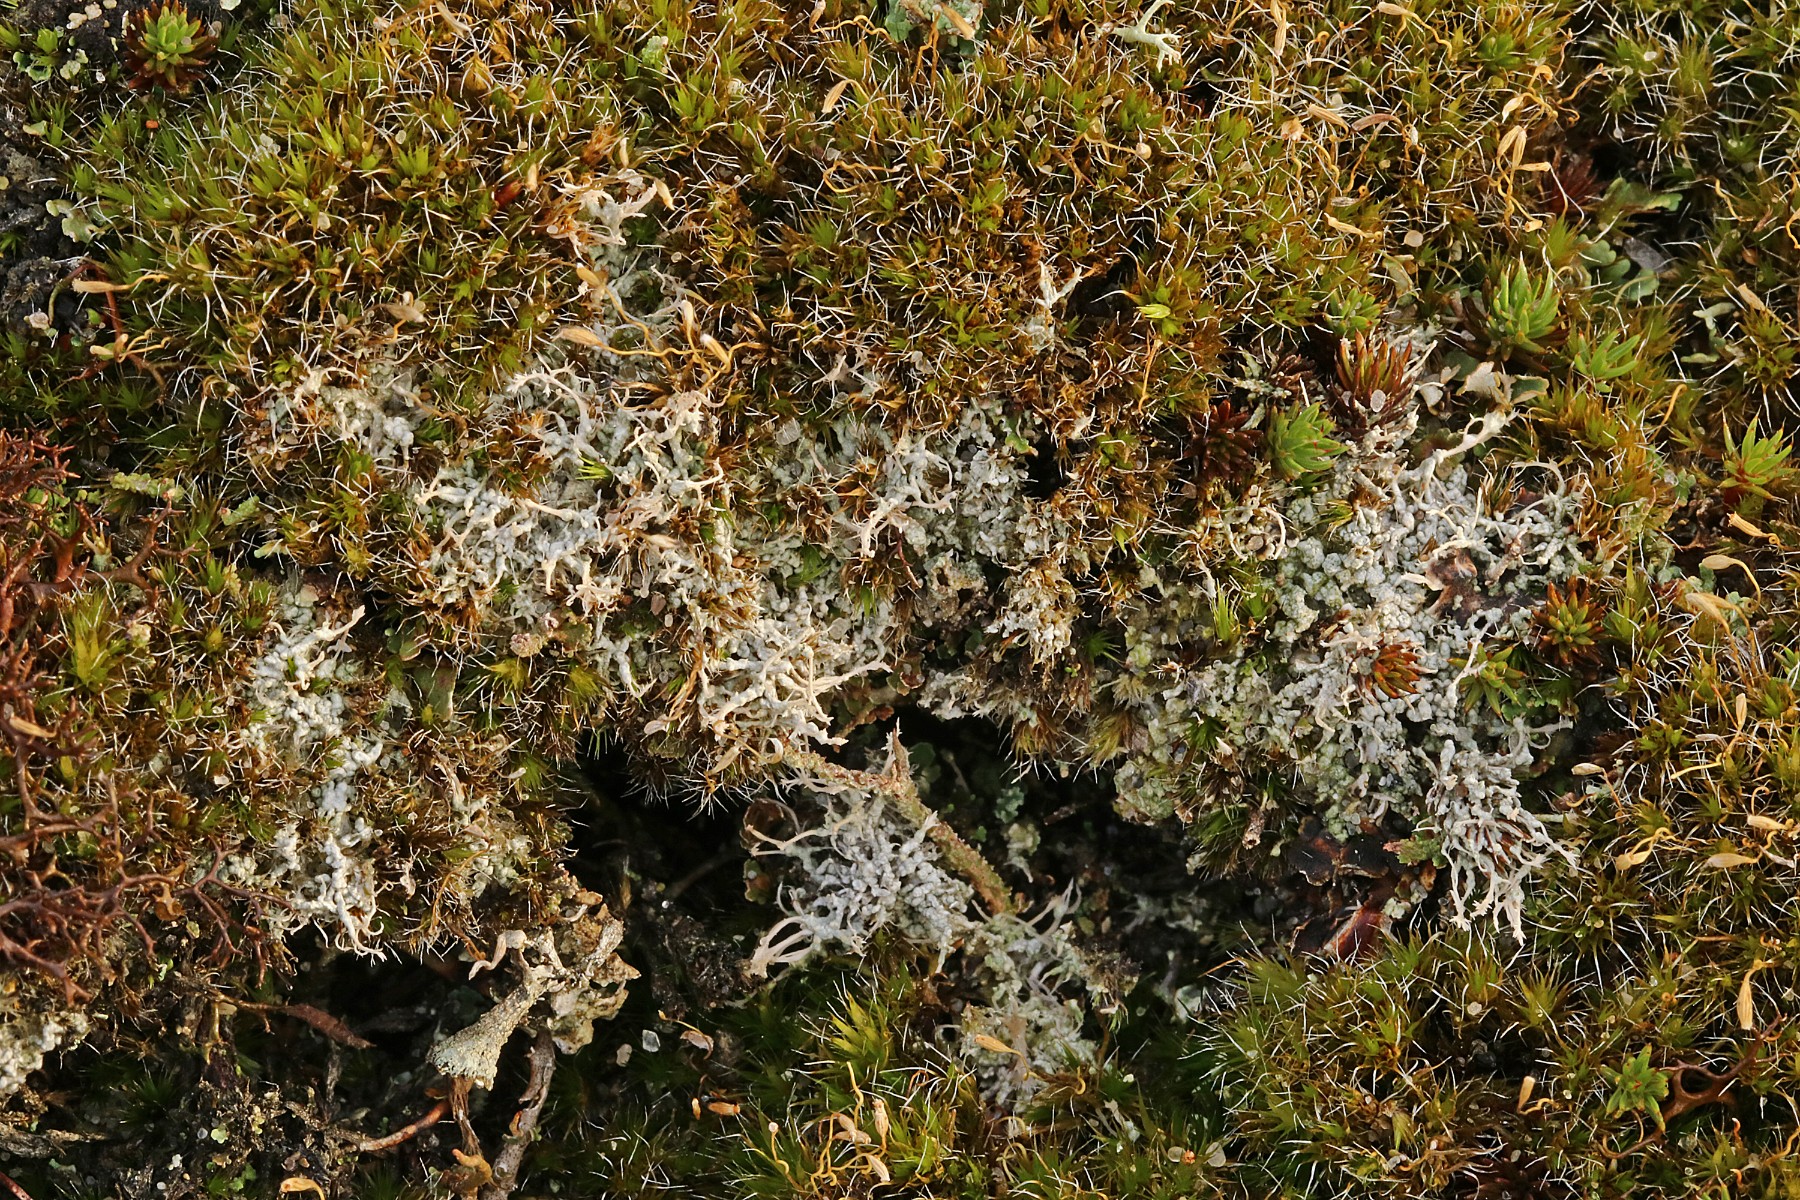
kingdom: Fungi
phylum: Ascomycota
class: Lecanoromycetes
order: Pertusariales
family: Ochrolechiaceae
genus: Ochrolechia
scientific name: Ochrolechia frigida
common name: fjeld-blegskivelav
